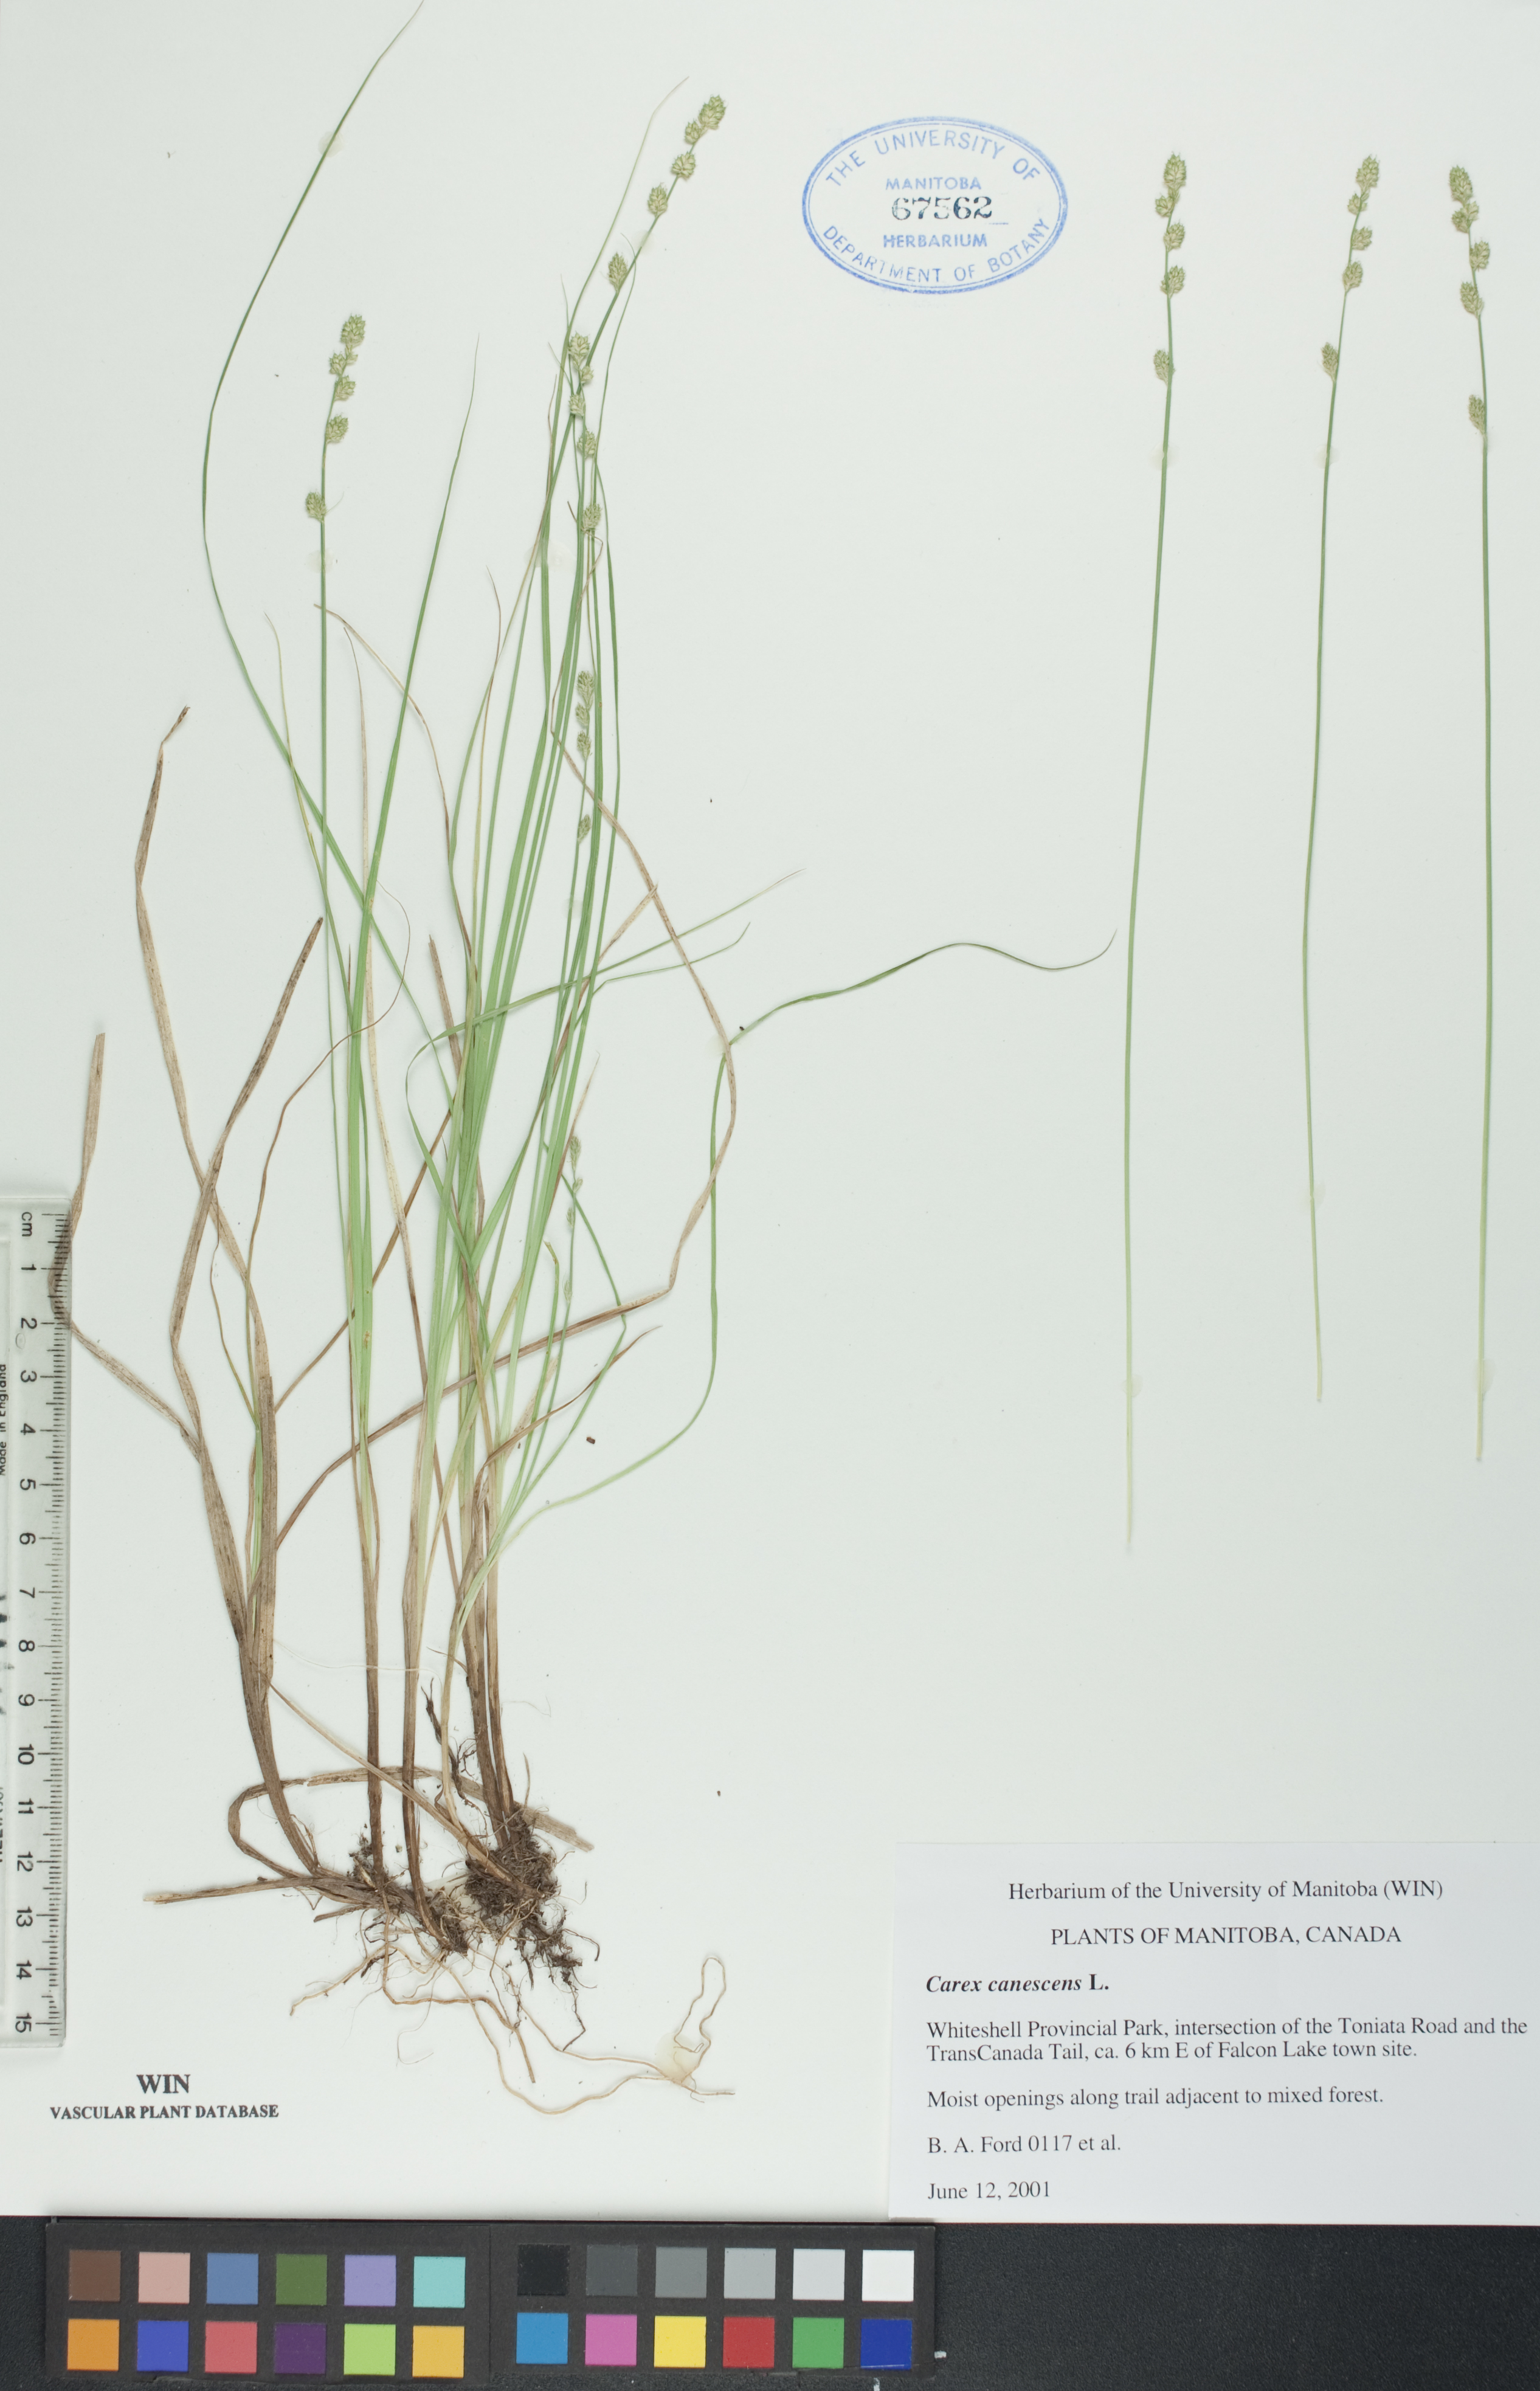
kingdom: Plantae
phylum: Tracheophyta
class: Liliopsida
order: Poales
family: Cyperaceae
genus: Carex
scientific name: Carex canescens
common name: White sedge
